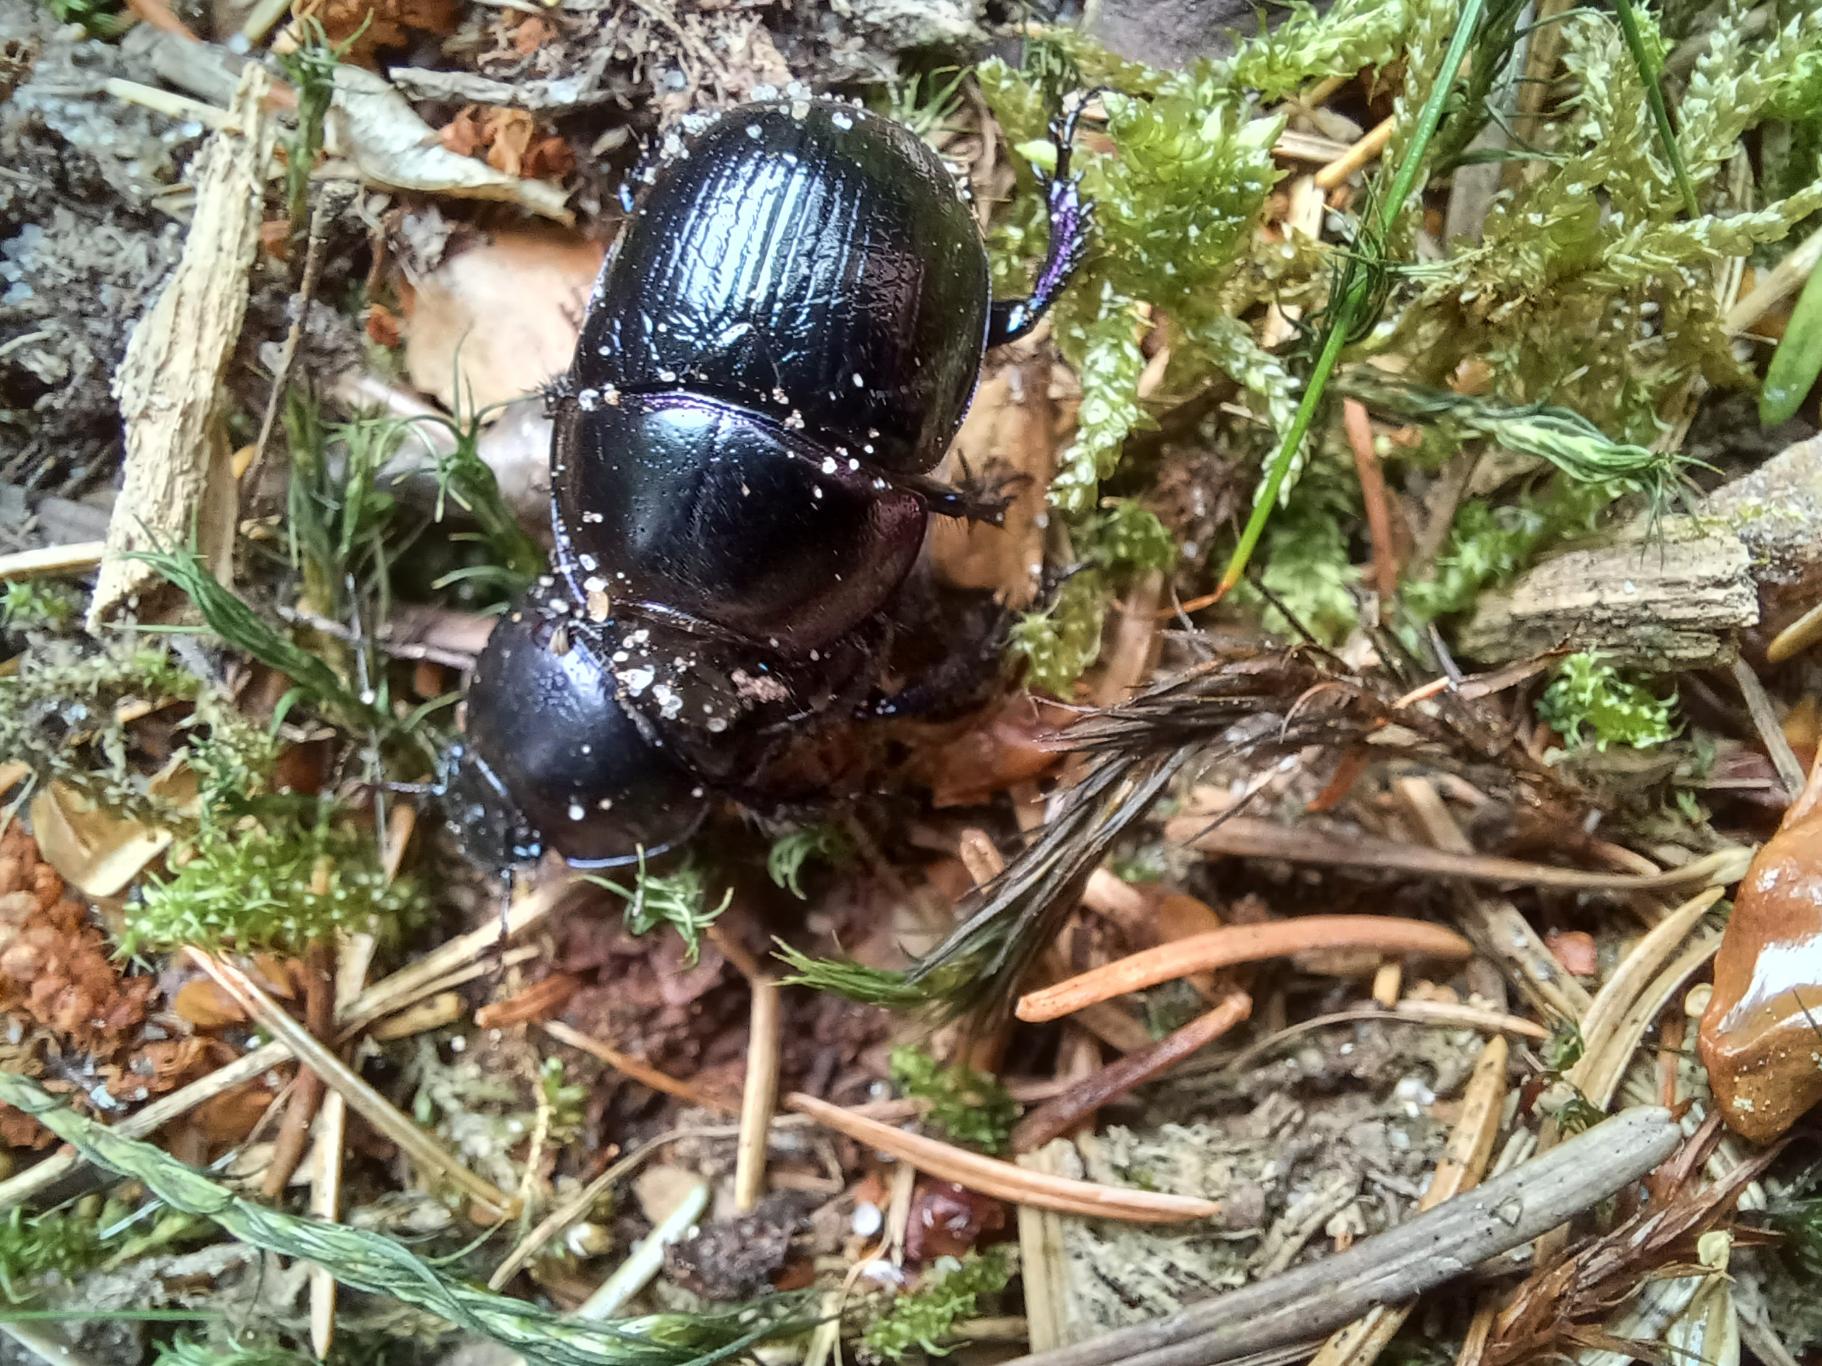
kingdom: Animalia
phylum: Arthropoda
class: Insecta
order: Coleoptera
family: Geotrupidae
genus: Anoplotrupes
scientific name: Anoplotrupes stercorosus
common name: Skovskarnbasse
